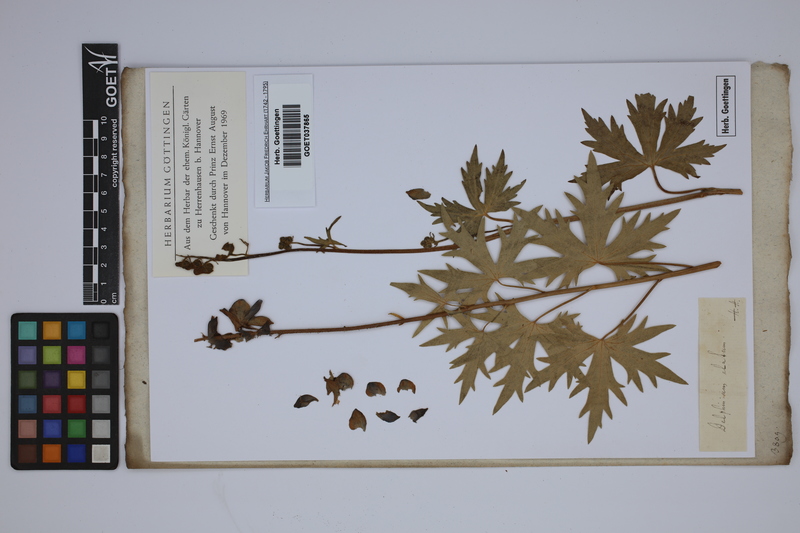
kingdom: Plantae
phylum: Tracheophyta
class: Magnoliopsida
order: Ranunculales
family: Ranunculaceae
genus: Delphinium
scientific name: Delphinium elatum
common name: Candle larkspur
